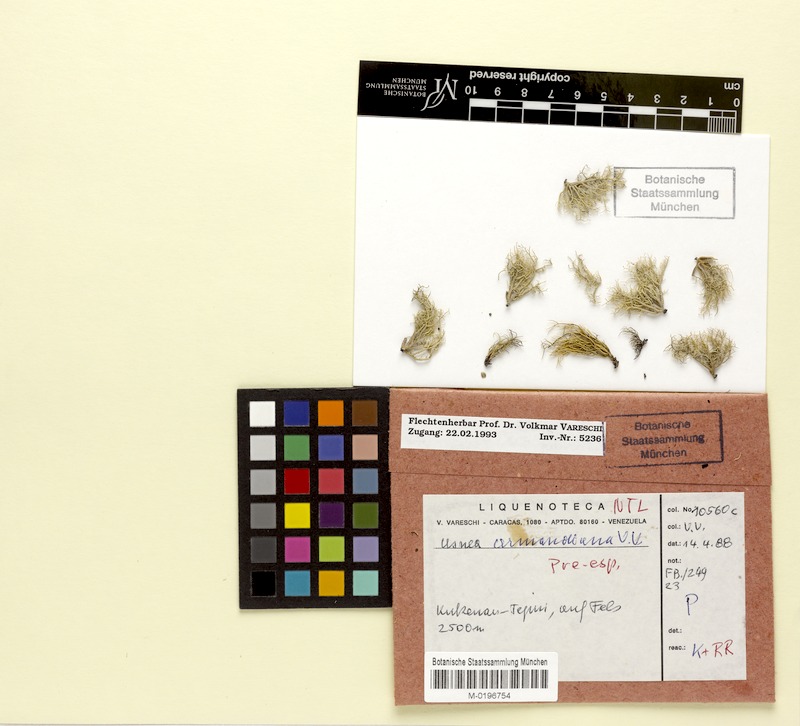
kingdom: Fungi
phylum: Ascomycota
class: Lecanoromycetes
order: Lecanorales
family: Parmeliaceae
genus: Usnea
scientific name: Usnea
